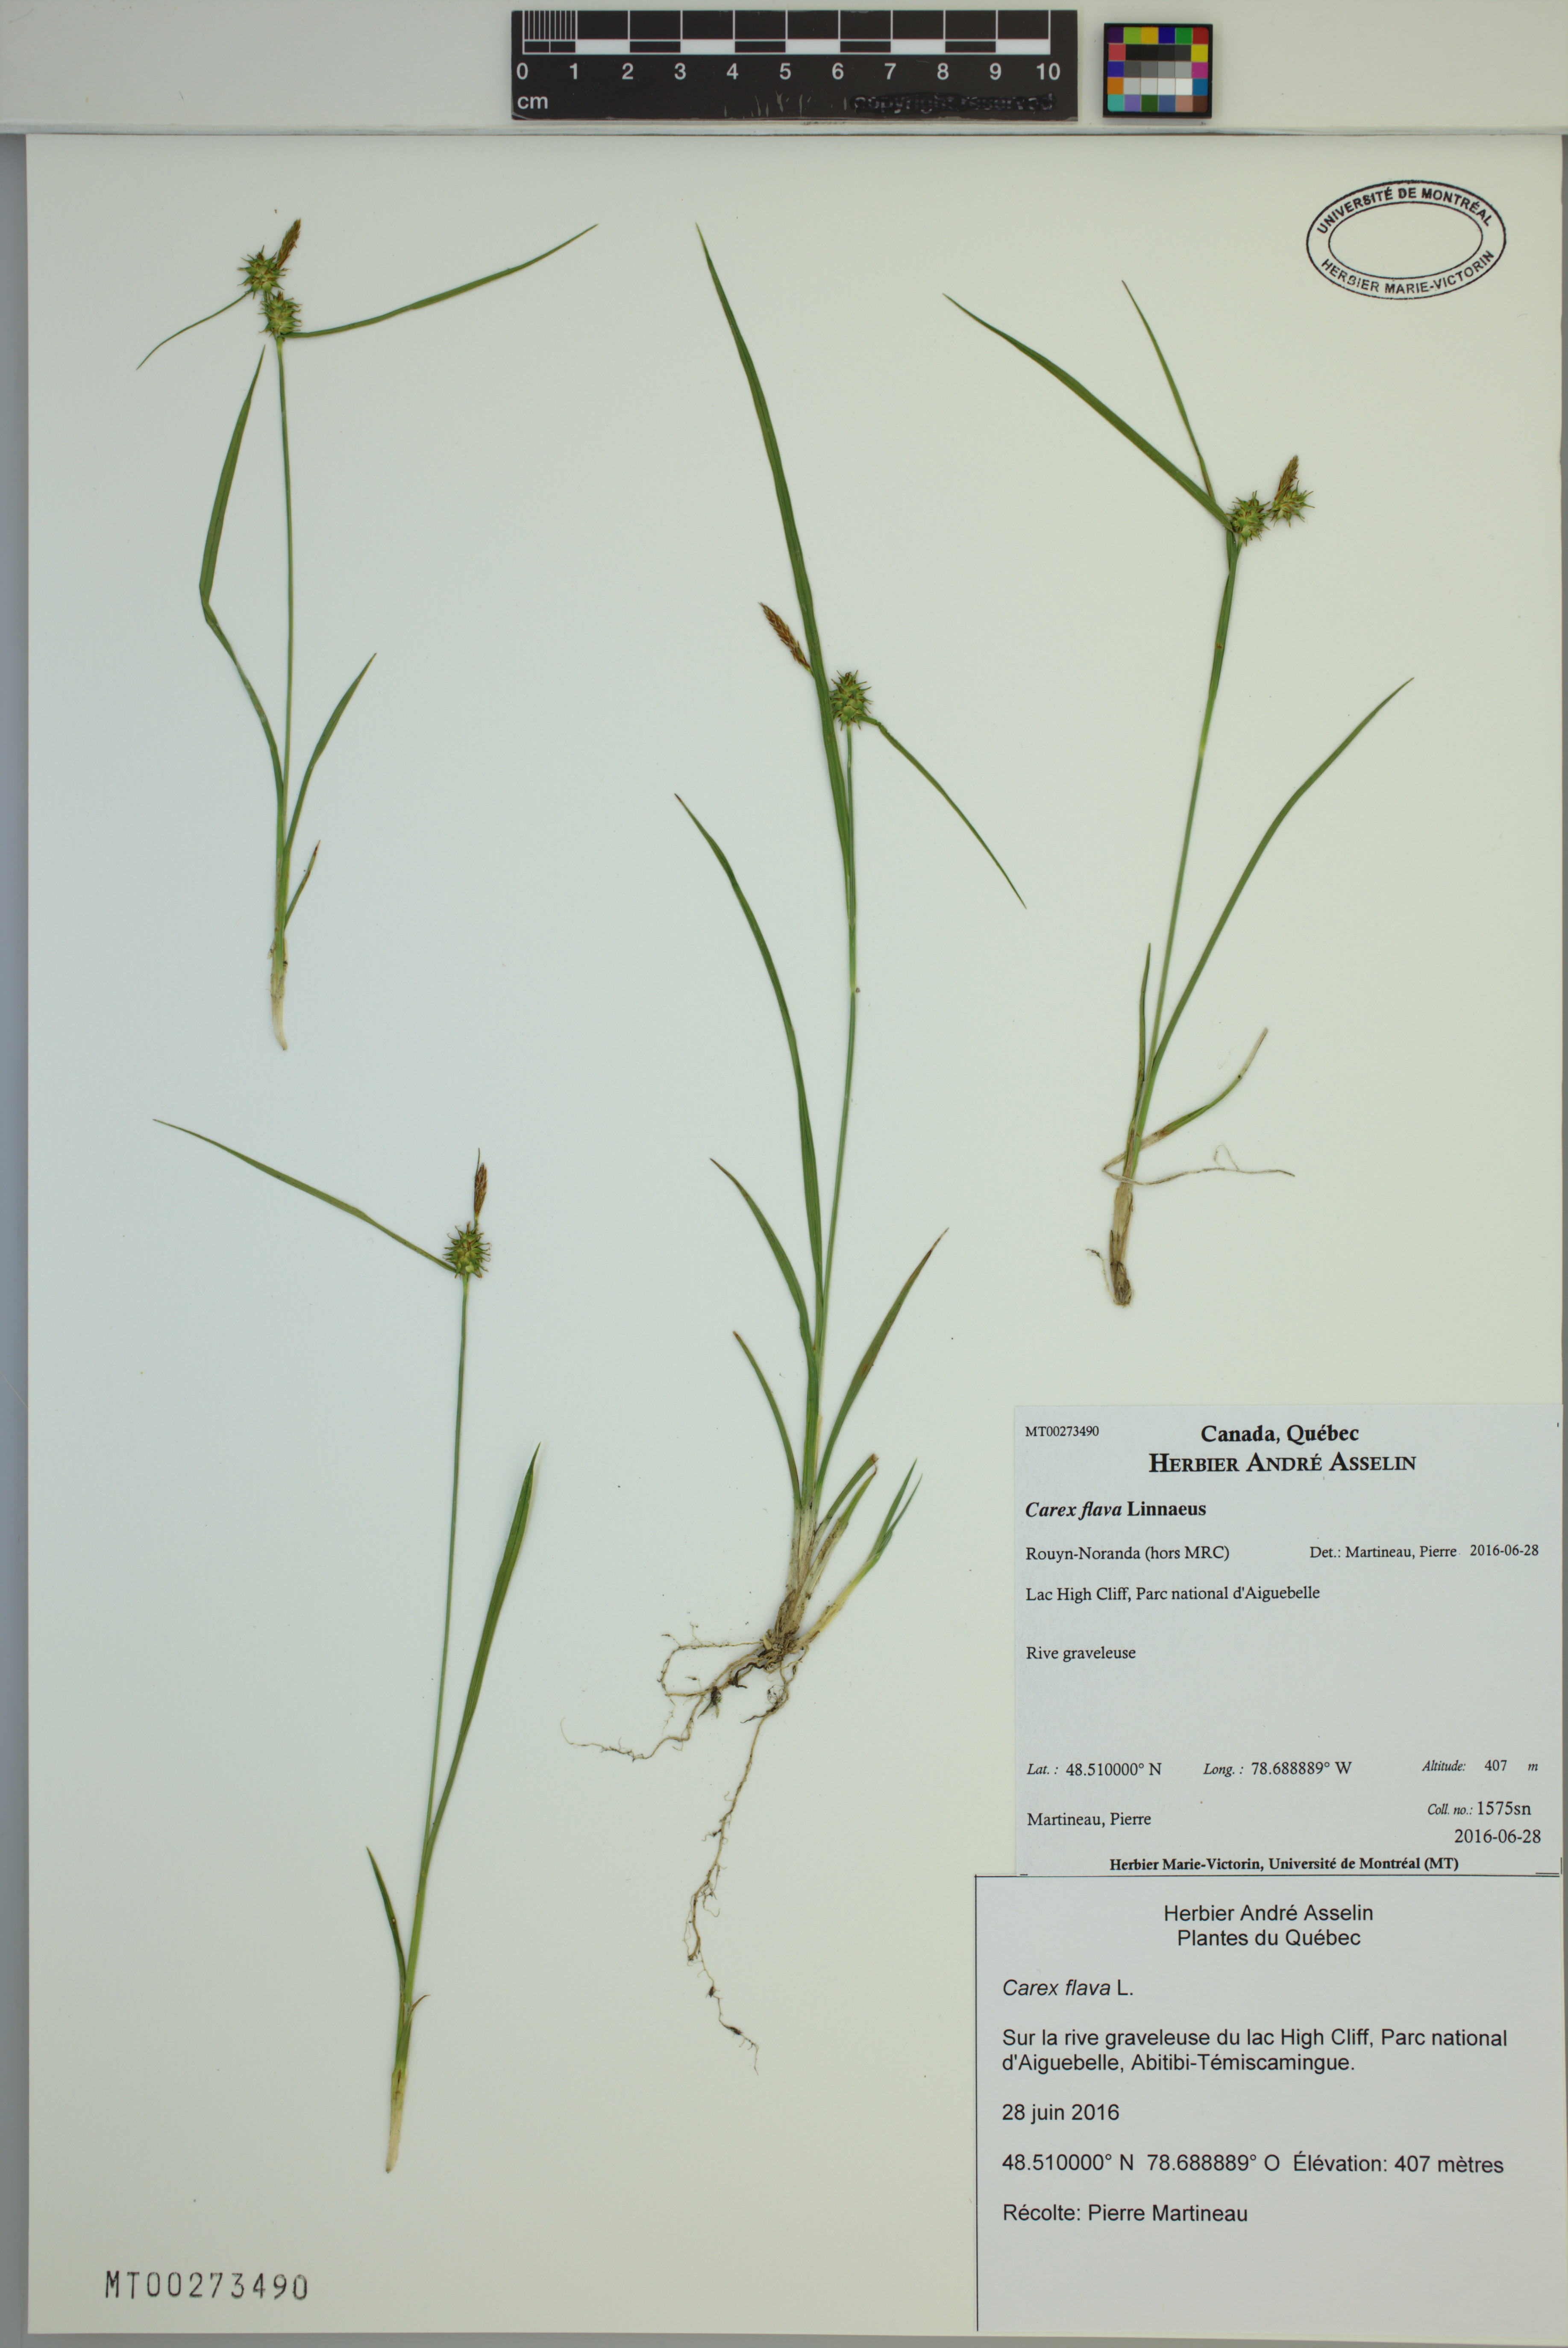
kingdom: Plantae
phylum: Tracheophyta
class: Liliopsida
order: Poales
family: Cyperaceae
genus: Carex
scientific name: Carex flava
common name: Large yellow-sedge
